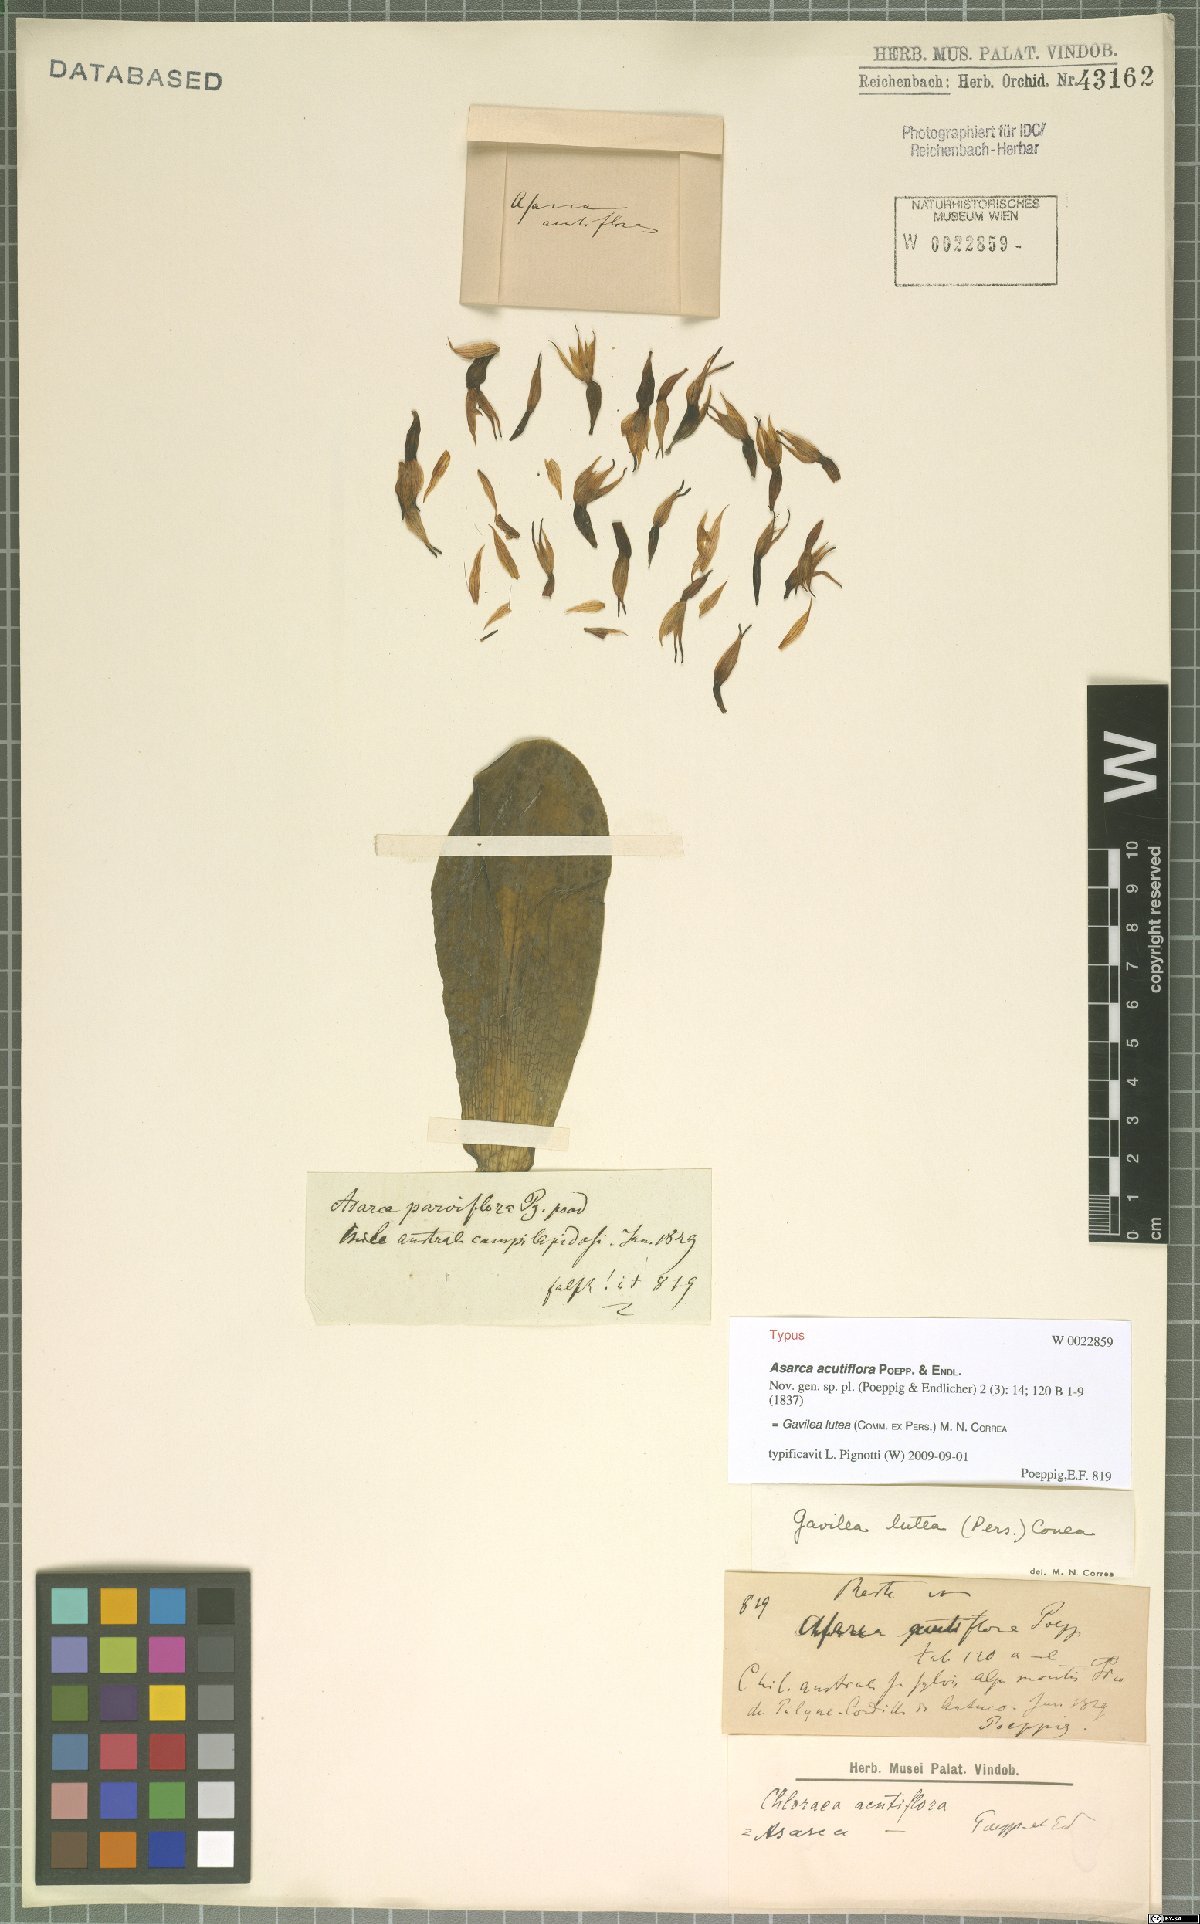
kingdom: Plantae
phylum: Tracheophyta
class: Liliopsida
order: Asparagales
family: Orchidaceae
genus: Gavilea
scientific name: Gavilea lutea
